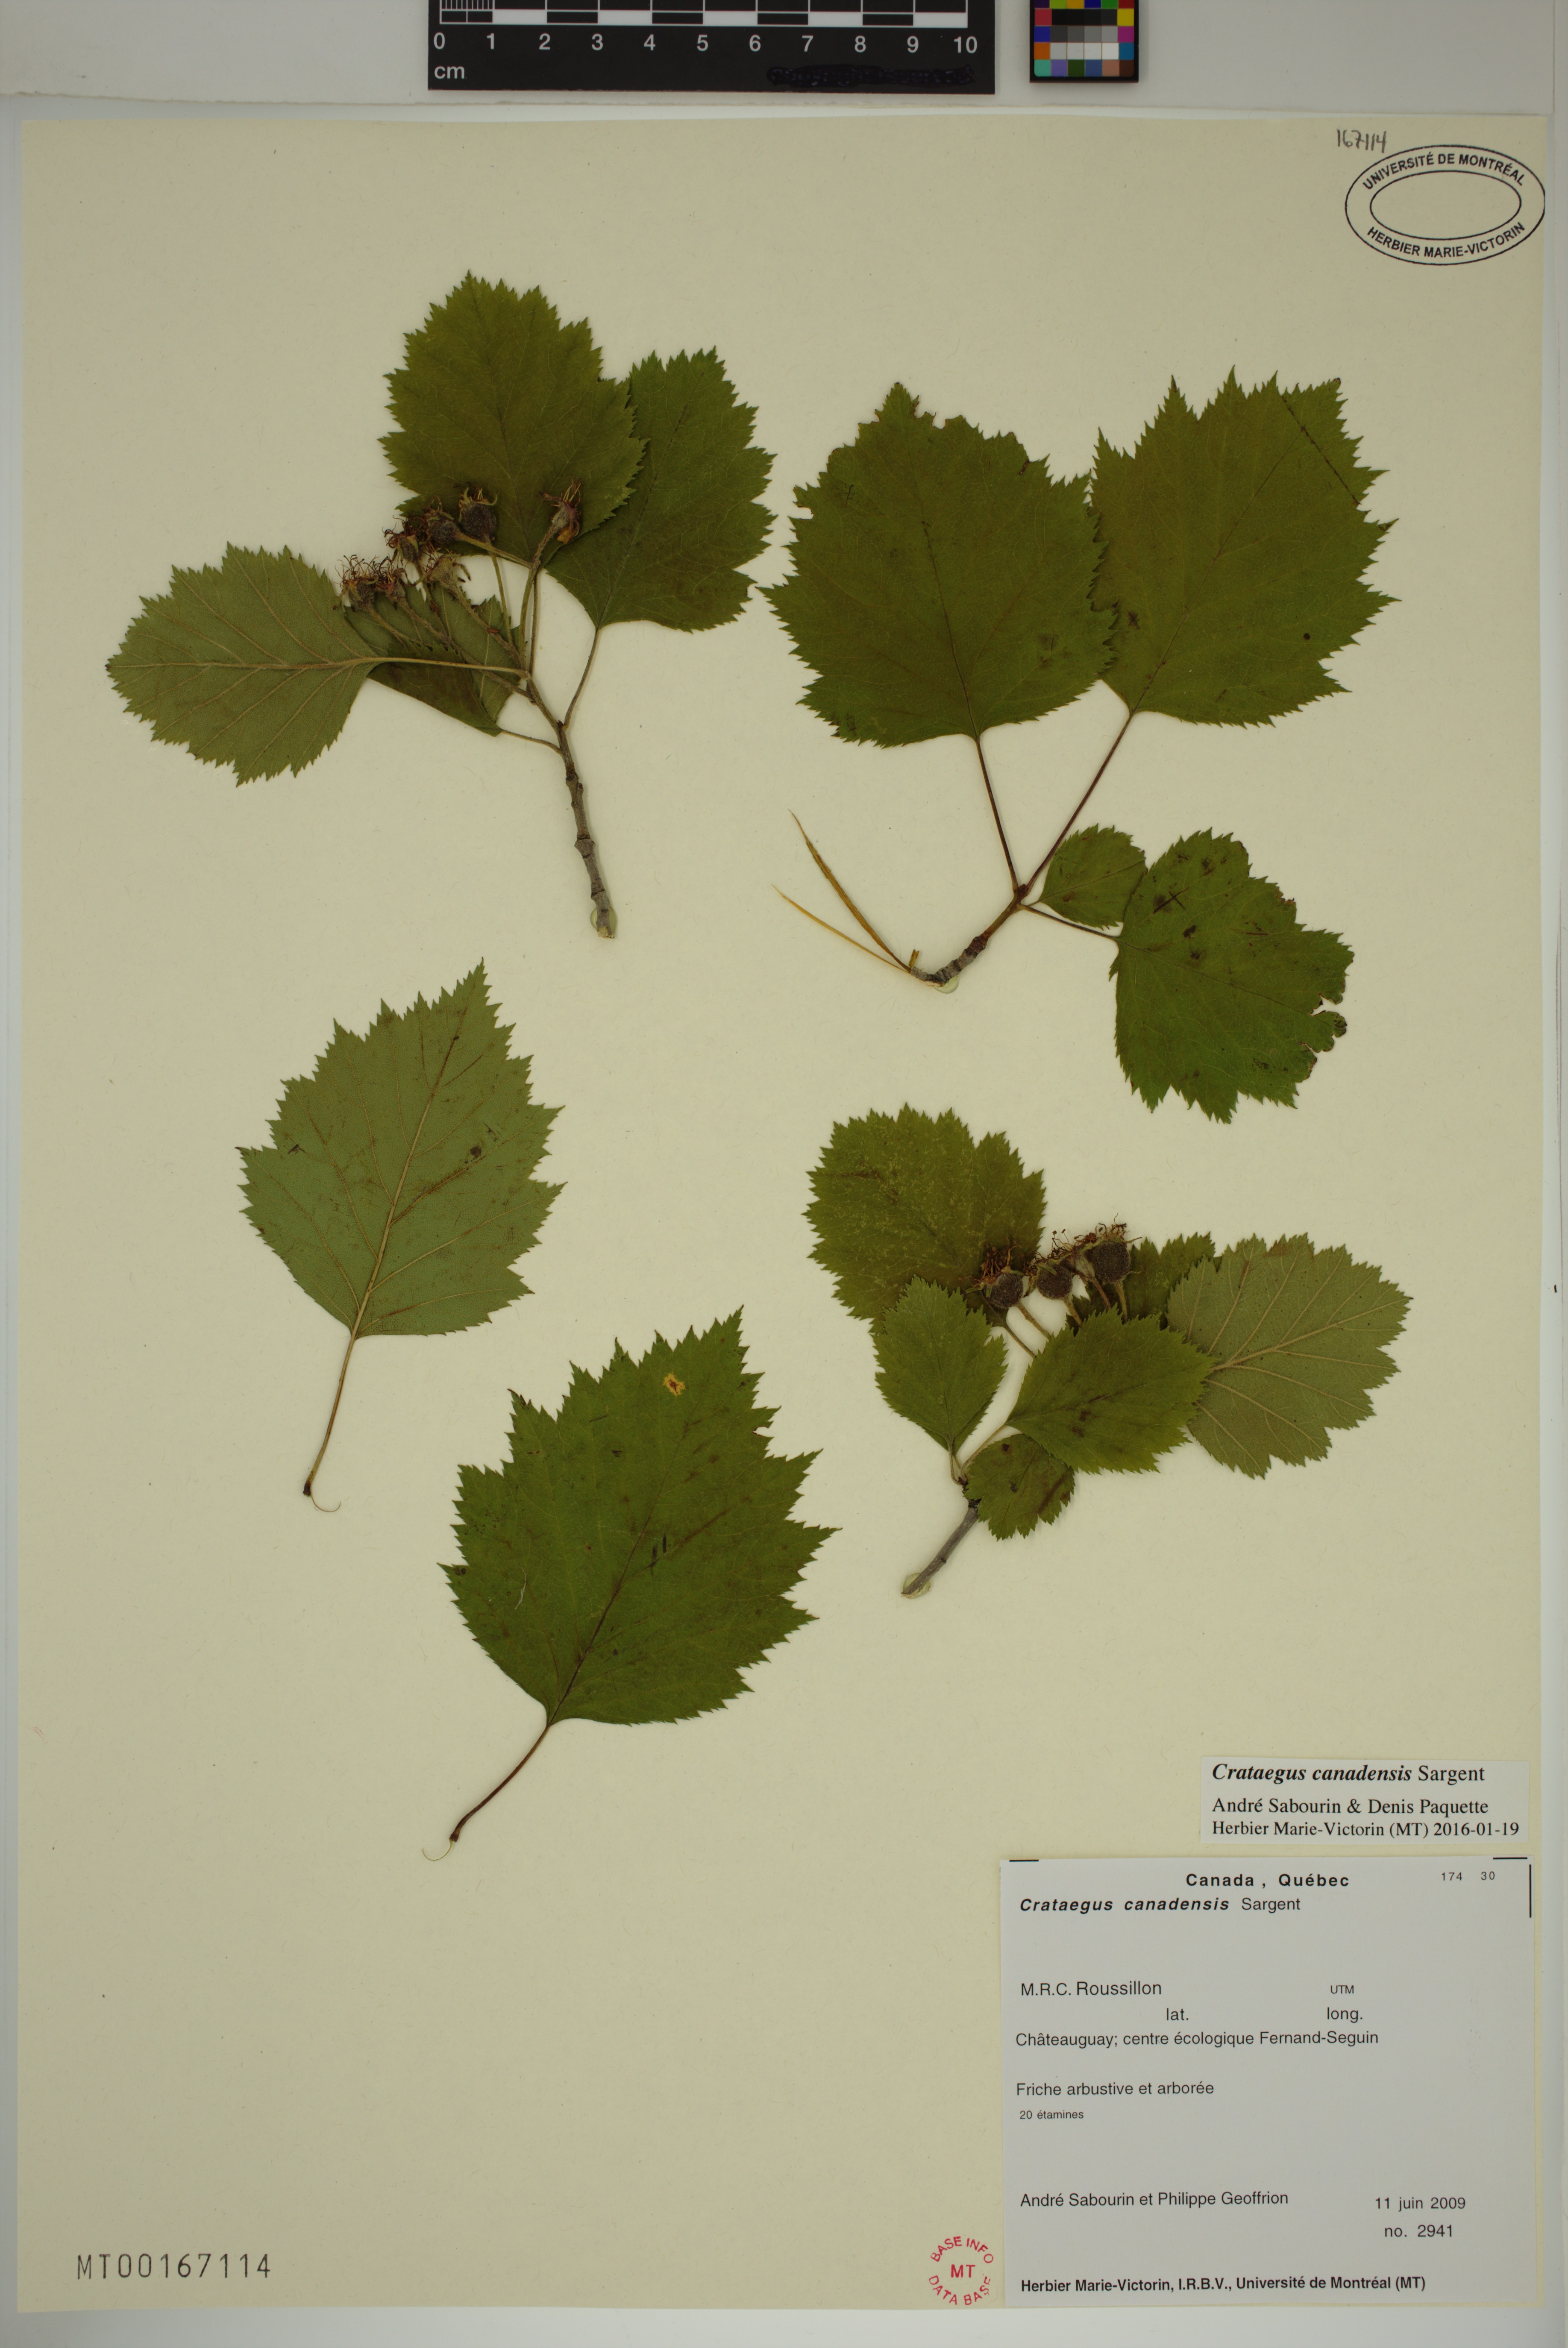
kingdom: Plantae
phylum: Tracheophyta
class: Magnoliopsida
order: Rosales
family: Rosaceae
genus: Crataegus
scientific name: Crataegus submollis
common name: Hairy cockspurthorn
